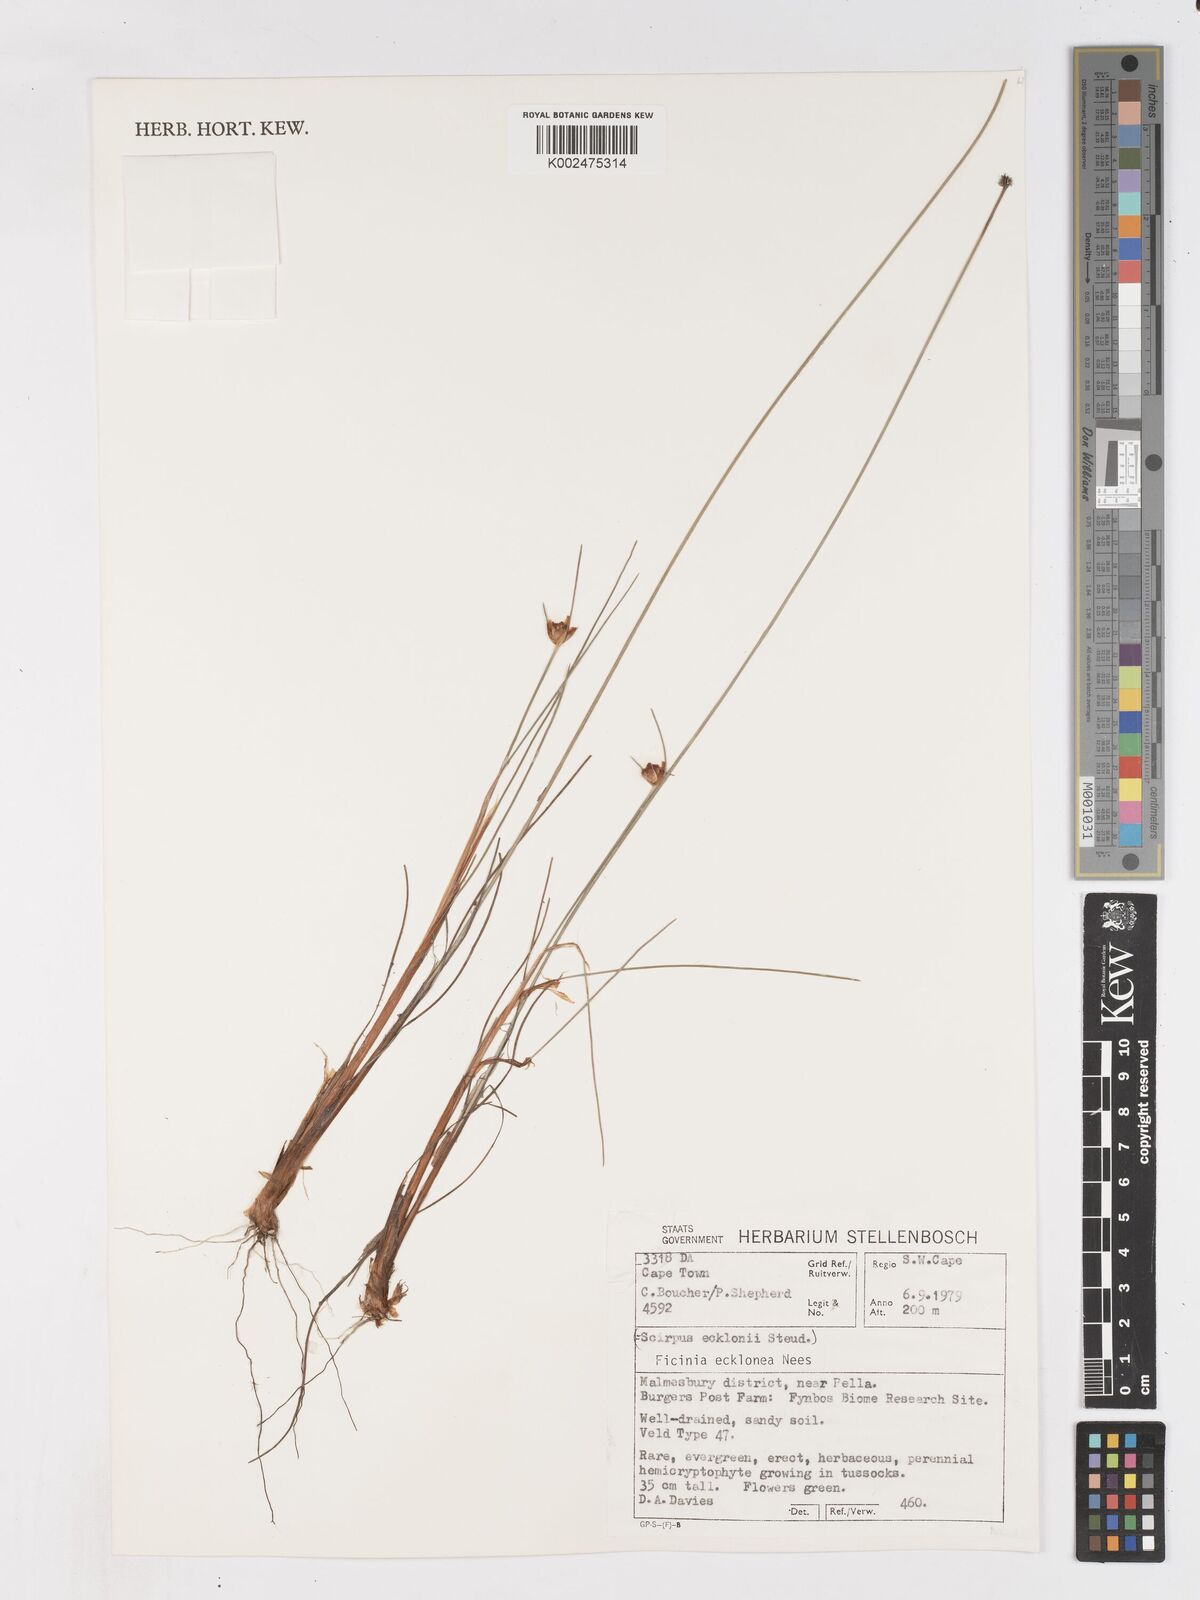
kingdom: Plantae
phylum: Tracheophyta
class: Liliopsida
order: Poales
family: Cyperaceae
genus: Ficinia
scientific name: Ficinia ecklonea
